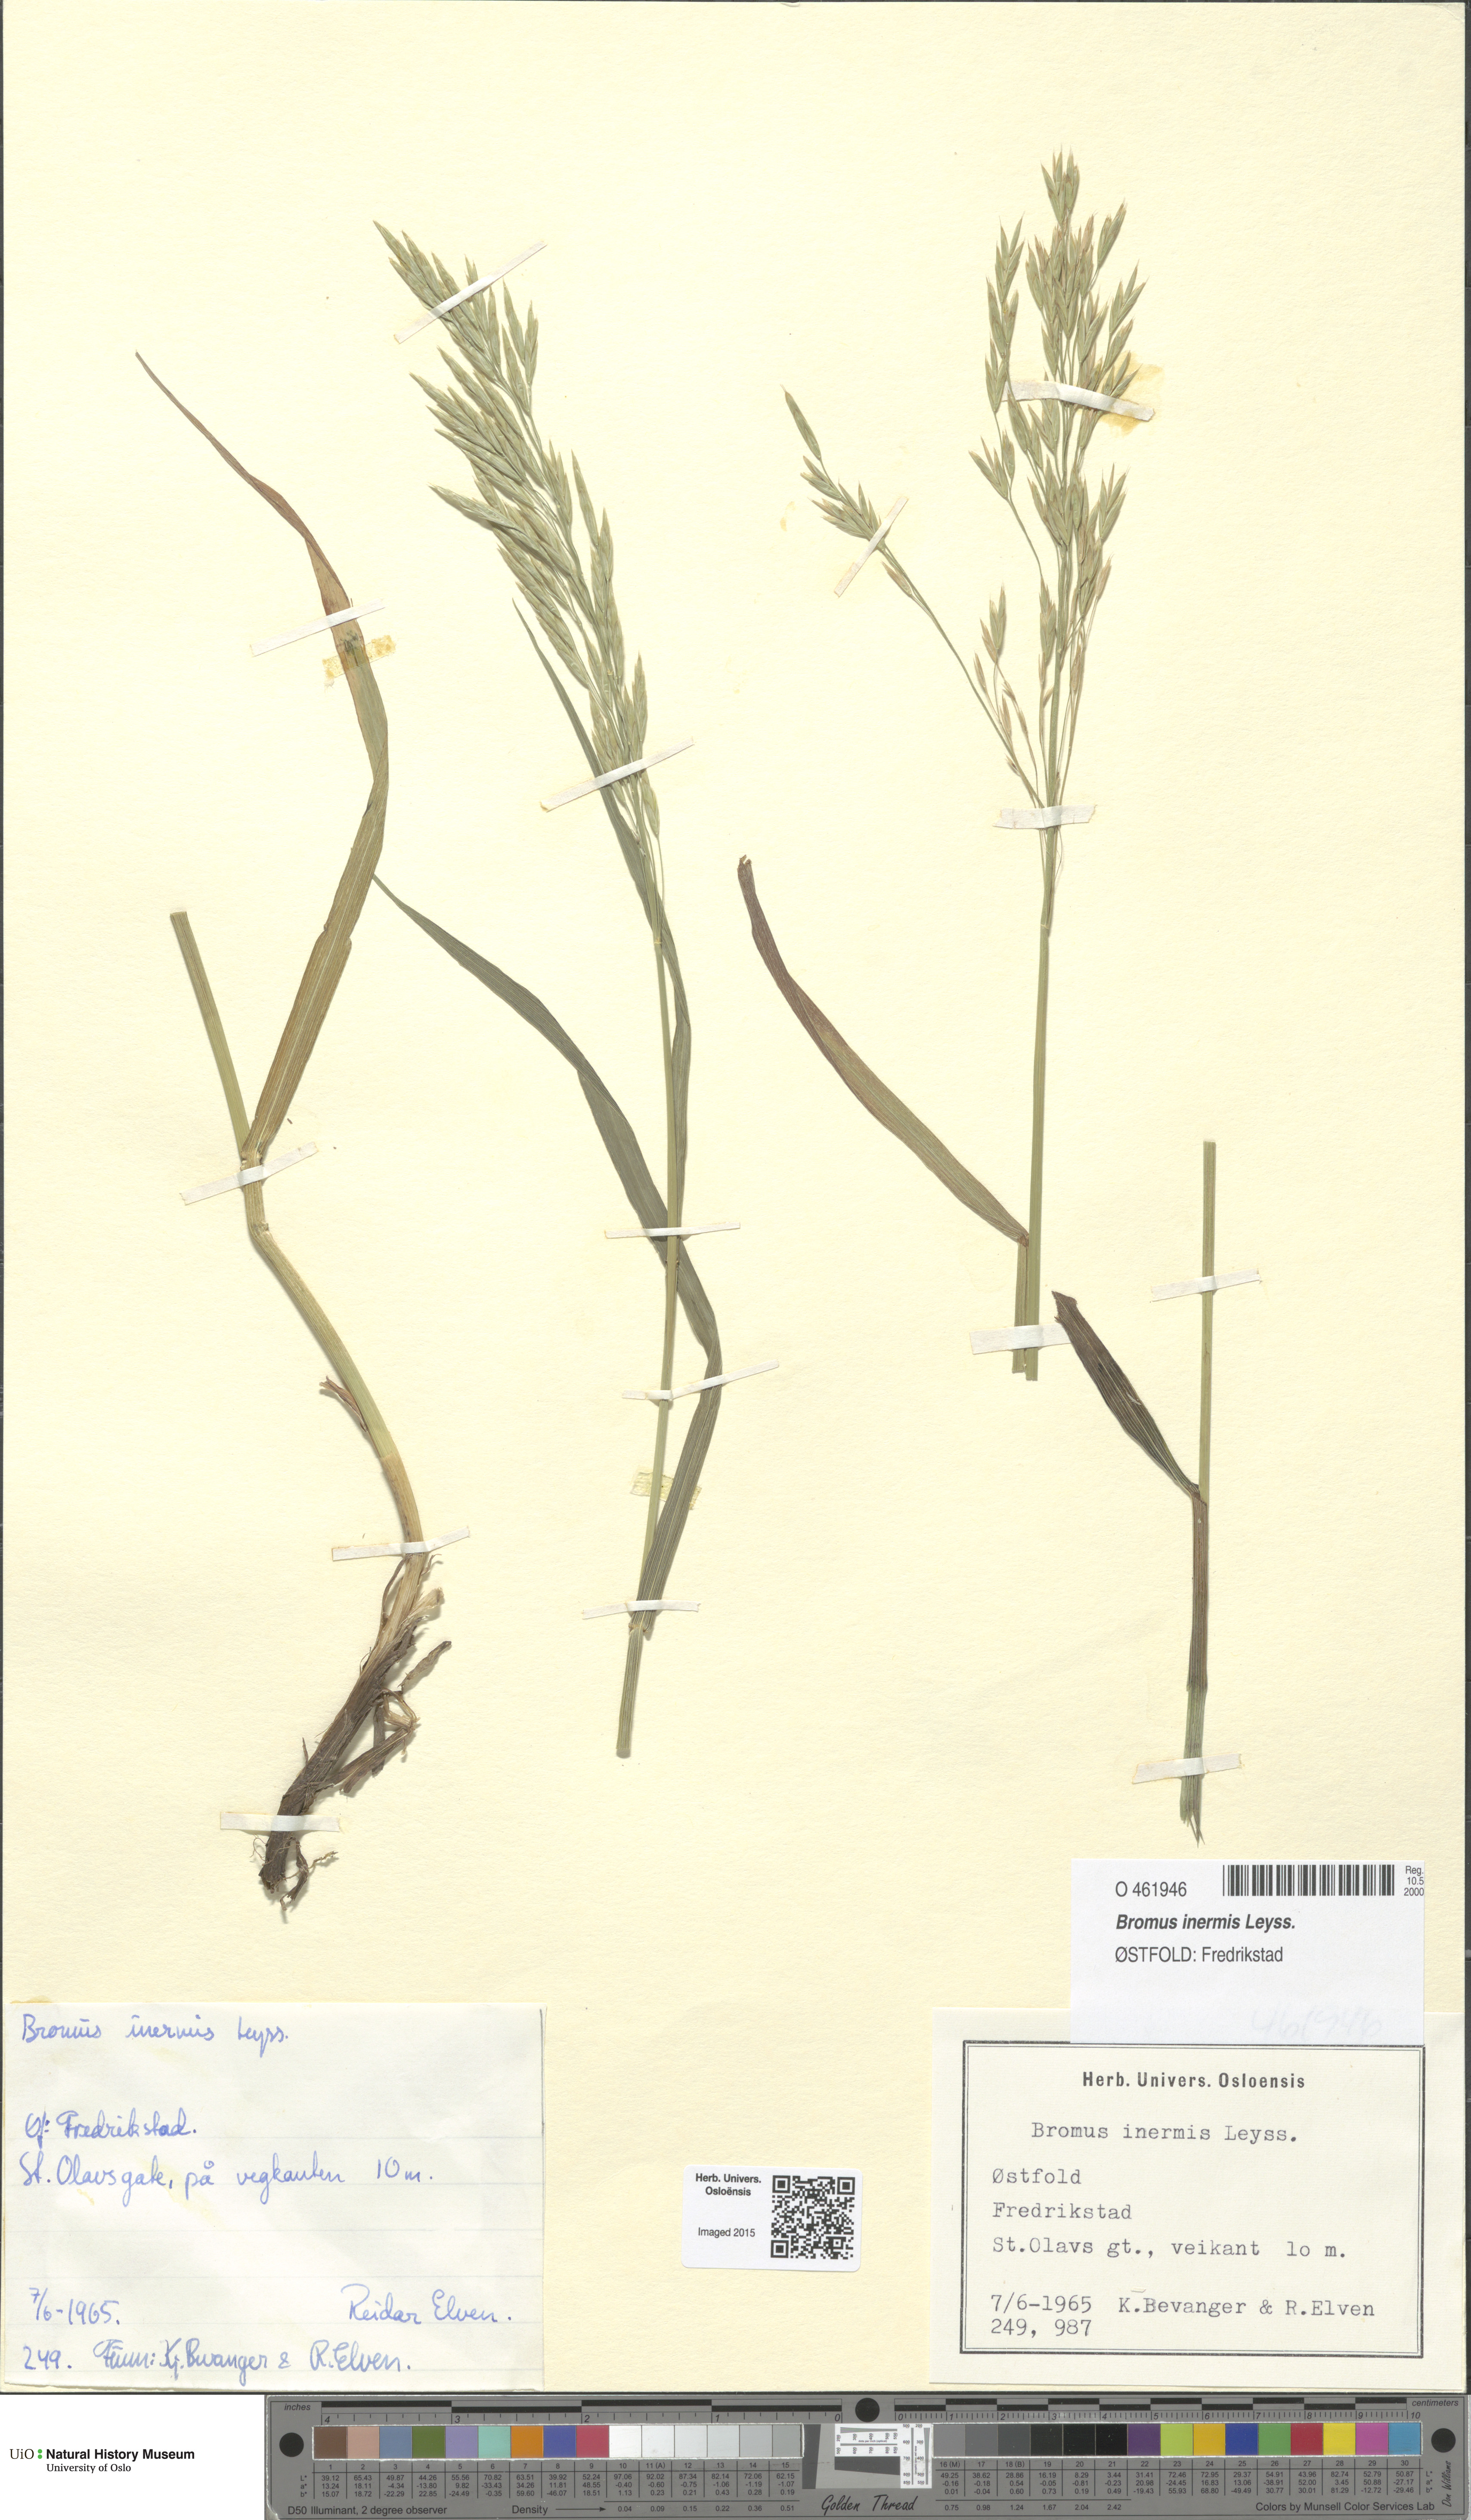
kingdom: Plantae
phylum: Tracheophyta
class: Liliopsida
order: Poales
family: Poaceae
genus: Bromus
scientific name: Bromus inermis
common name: Smooth brome
